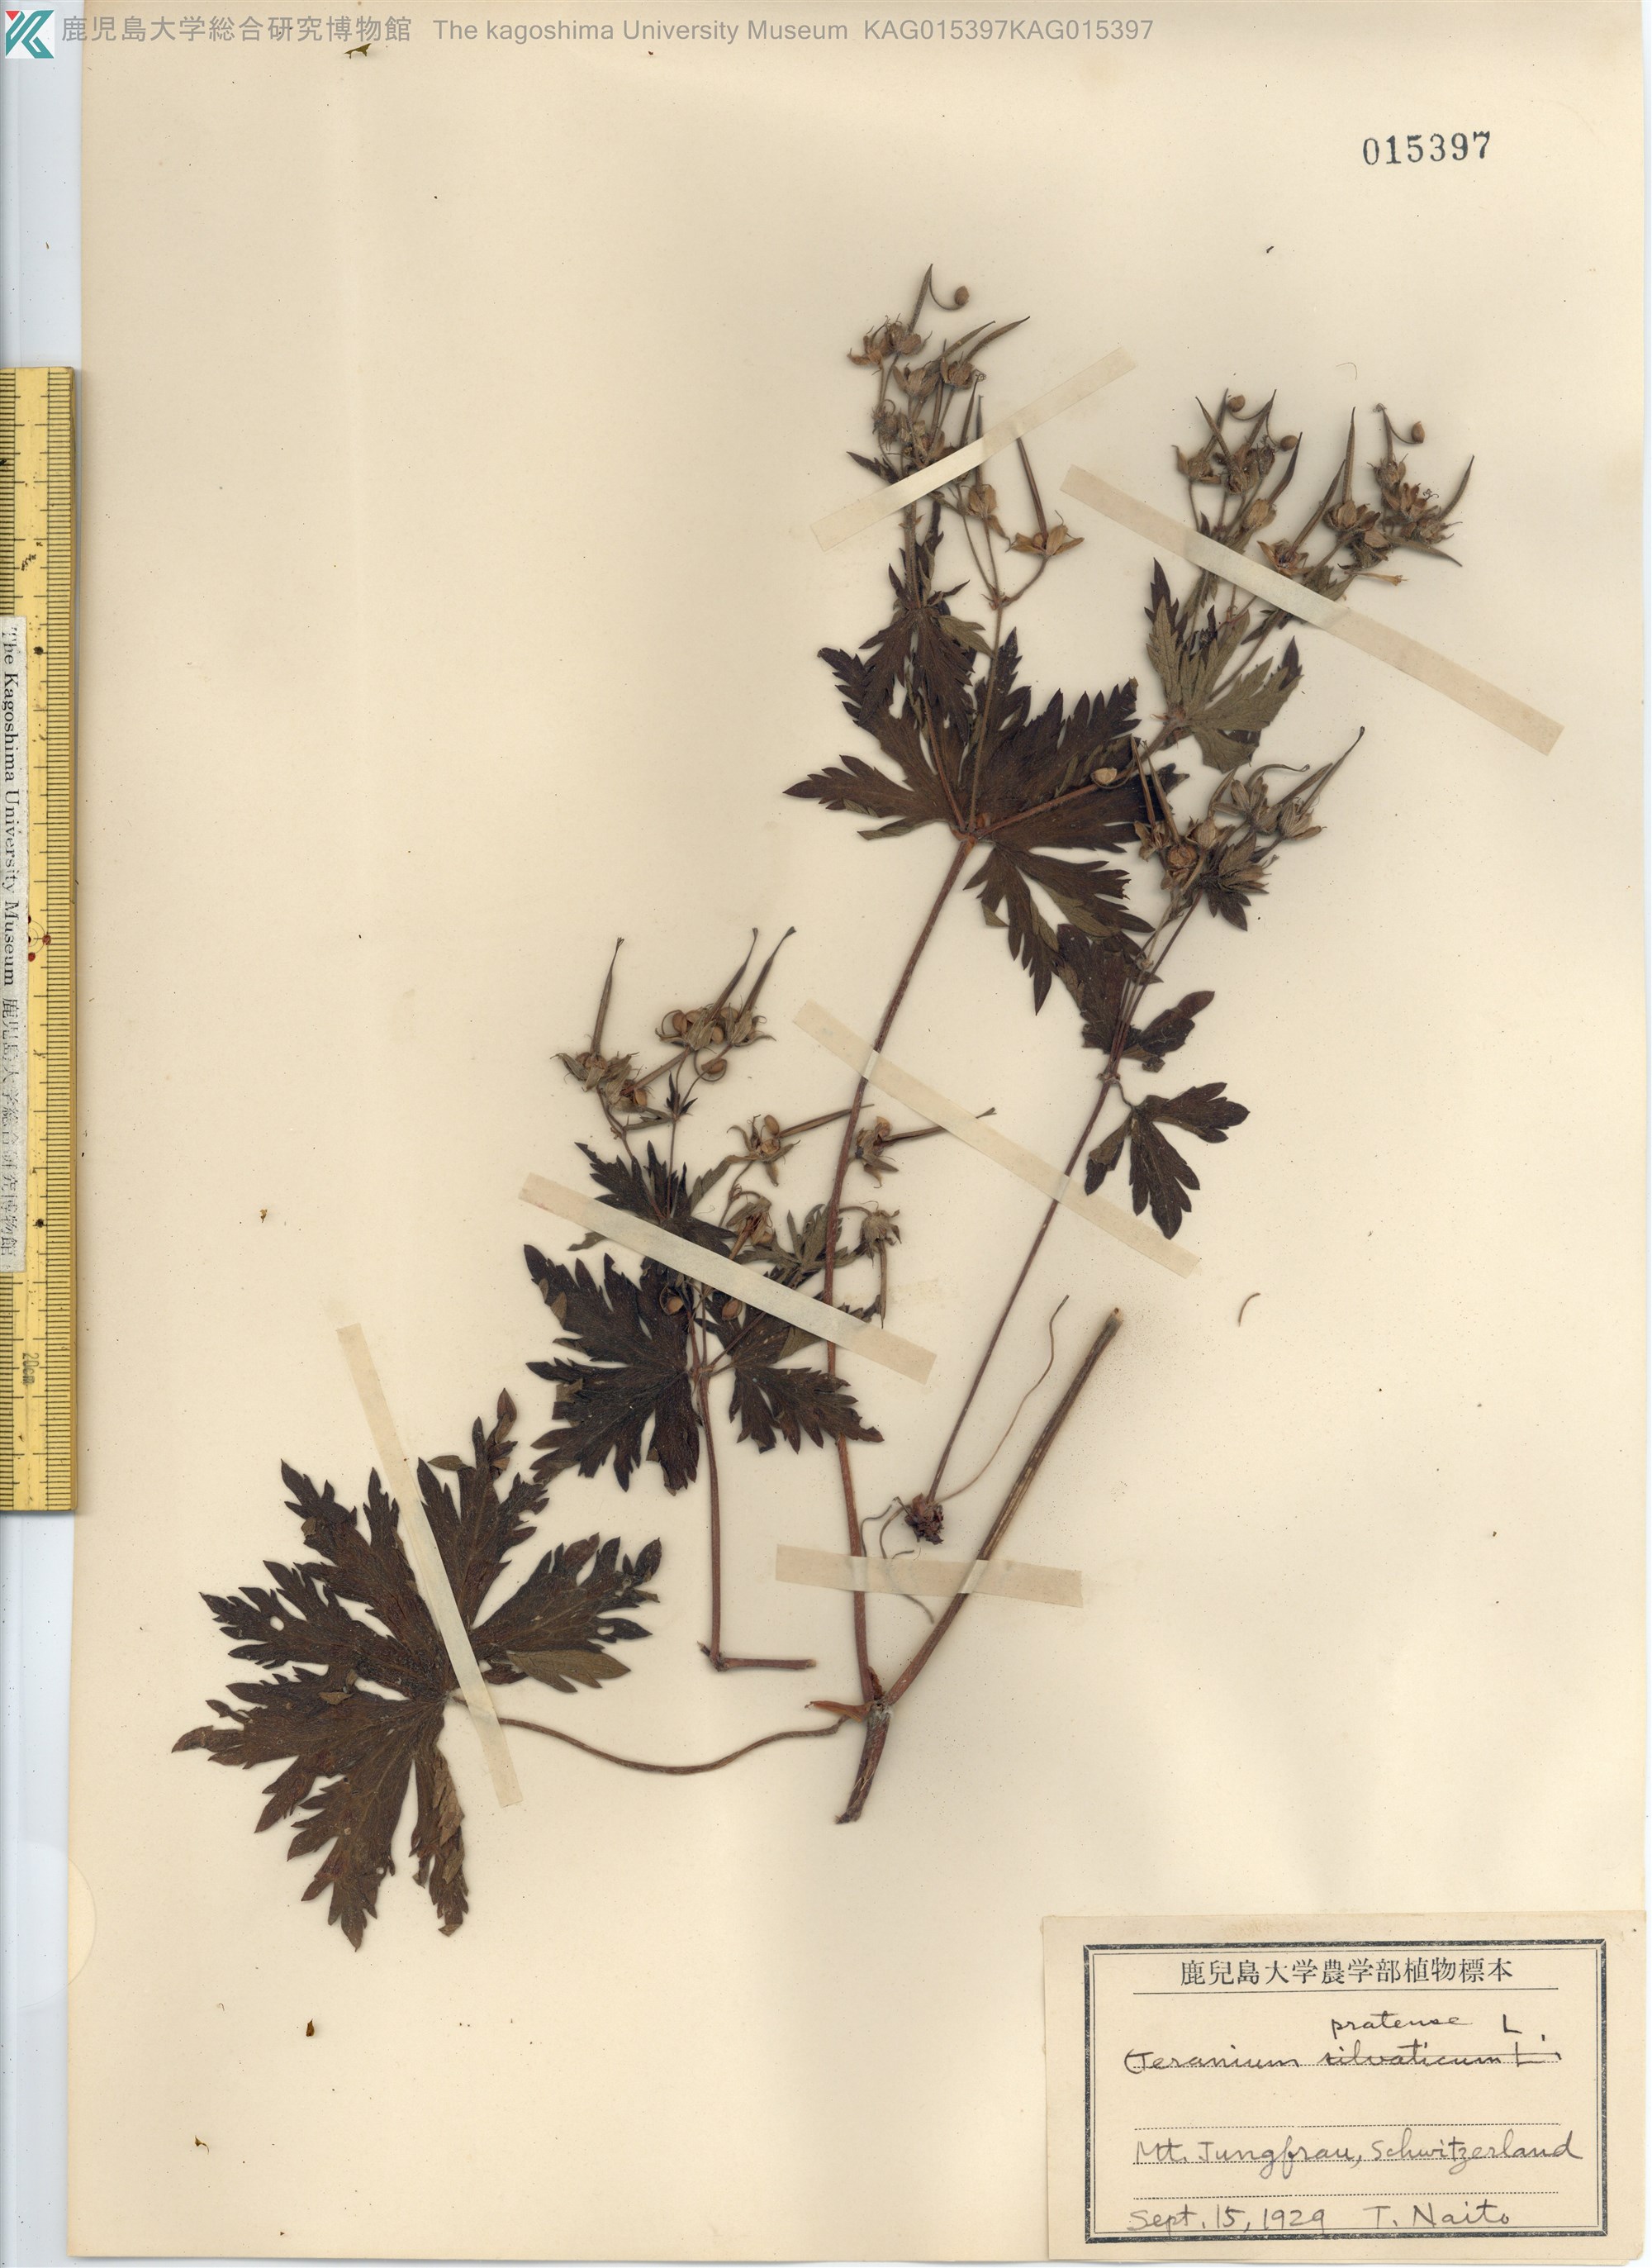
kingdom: Plantae
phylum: Tracheophyta
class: Magnoliopsida
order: Geraniales
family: Geraniaceae
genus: Geranium
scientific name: Geranium pratense
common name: Meadow crane's-bill
